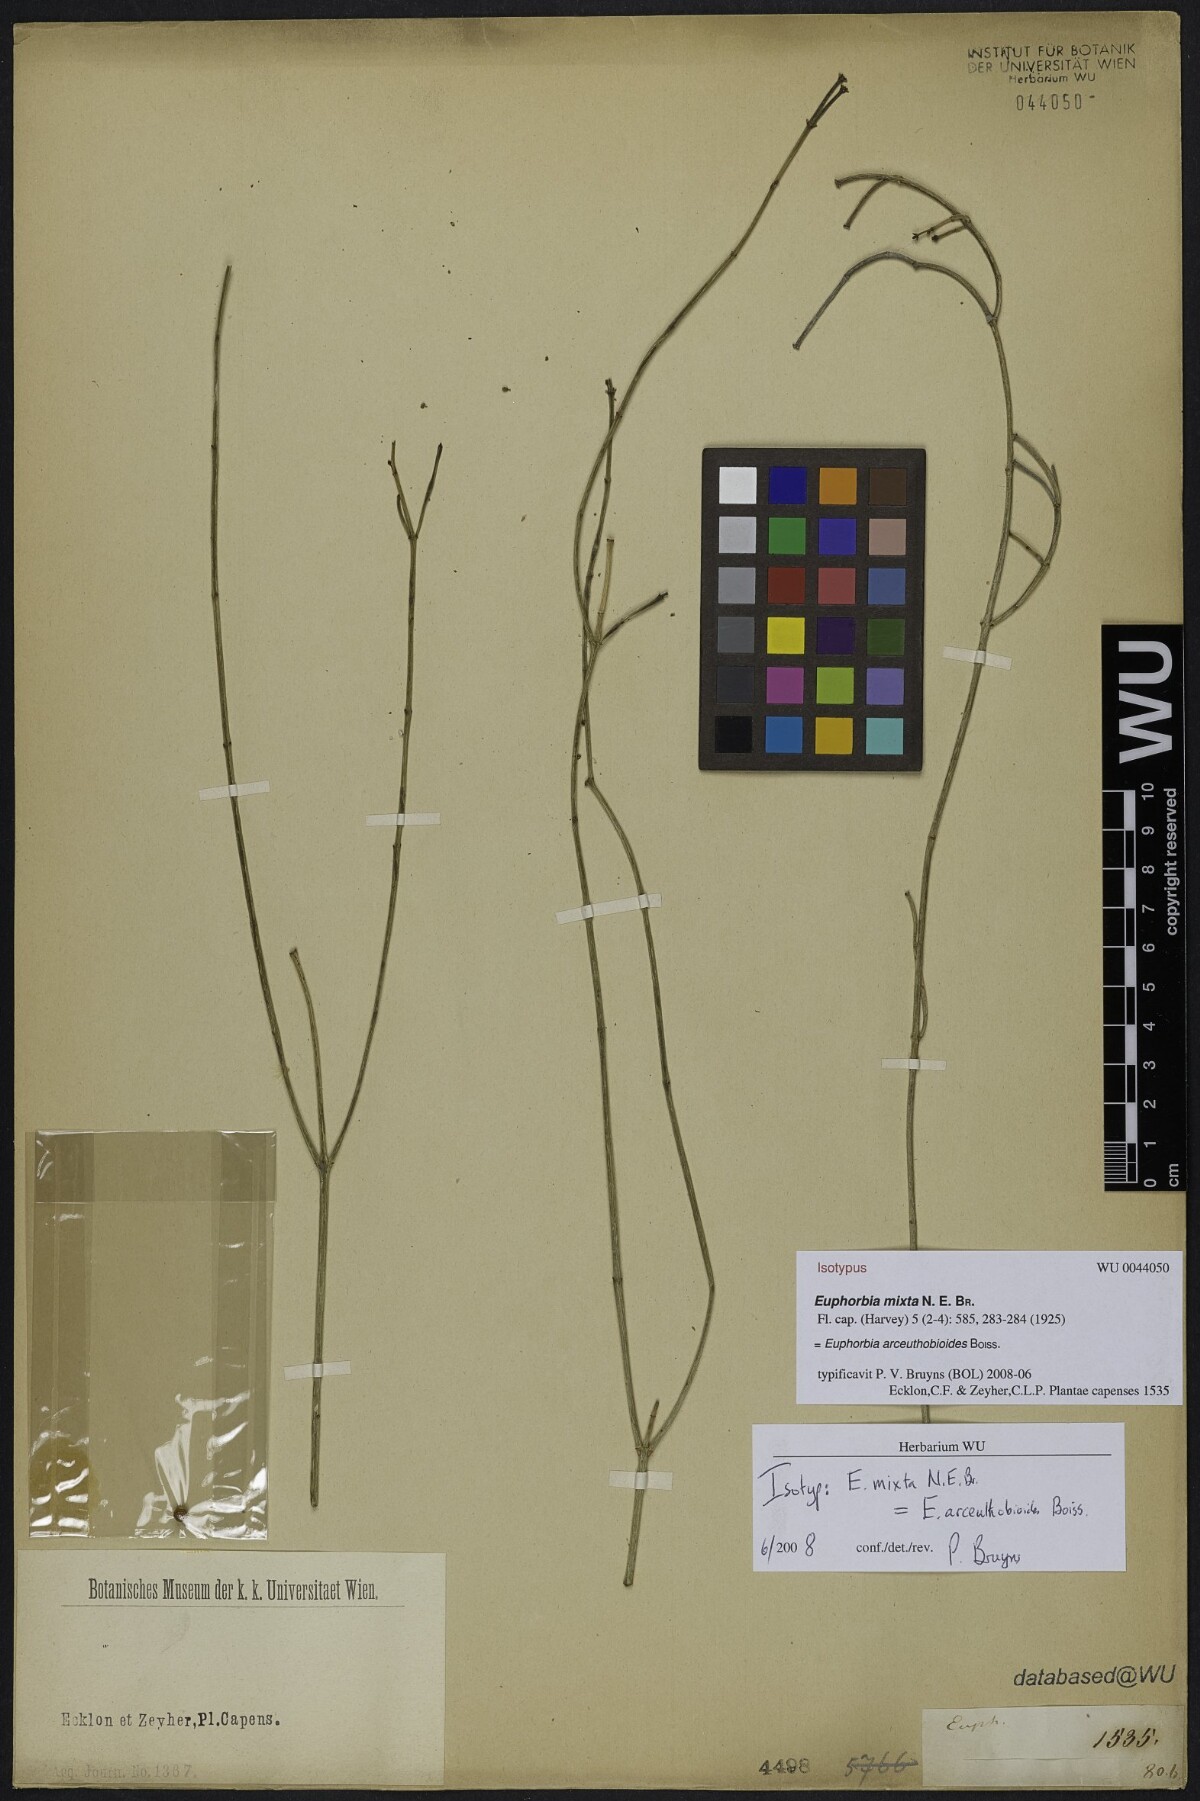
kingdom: Plantae
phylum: Tracheophyta
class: Magnoliopsida
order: Malpighiales
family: Euphorbiaceae
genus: Euphorbia
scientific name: Euphorbia tenax
